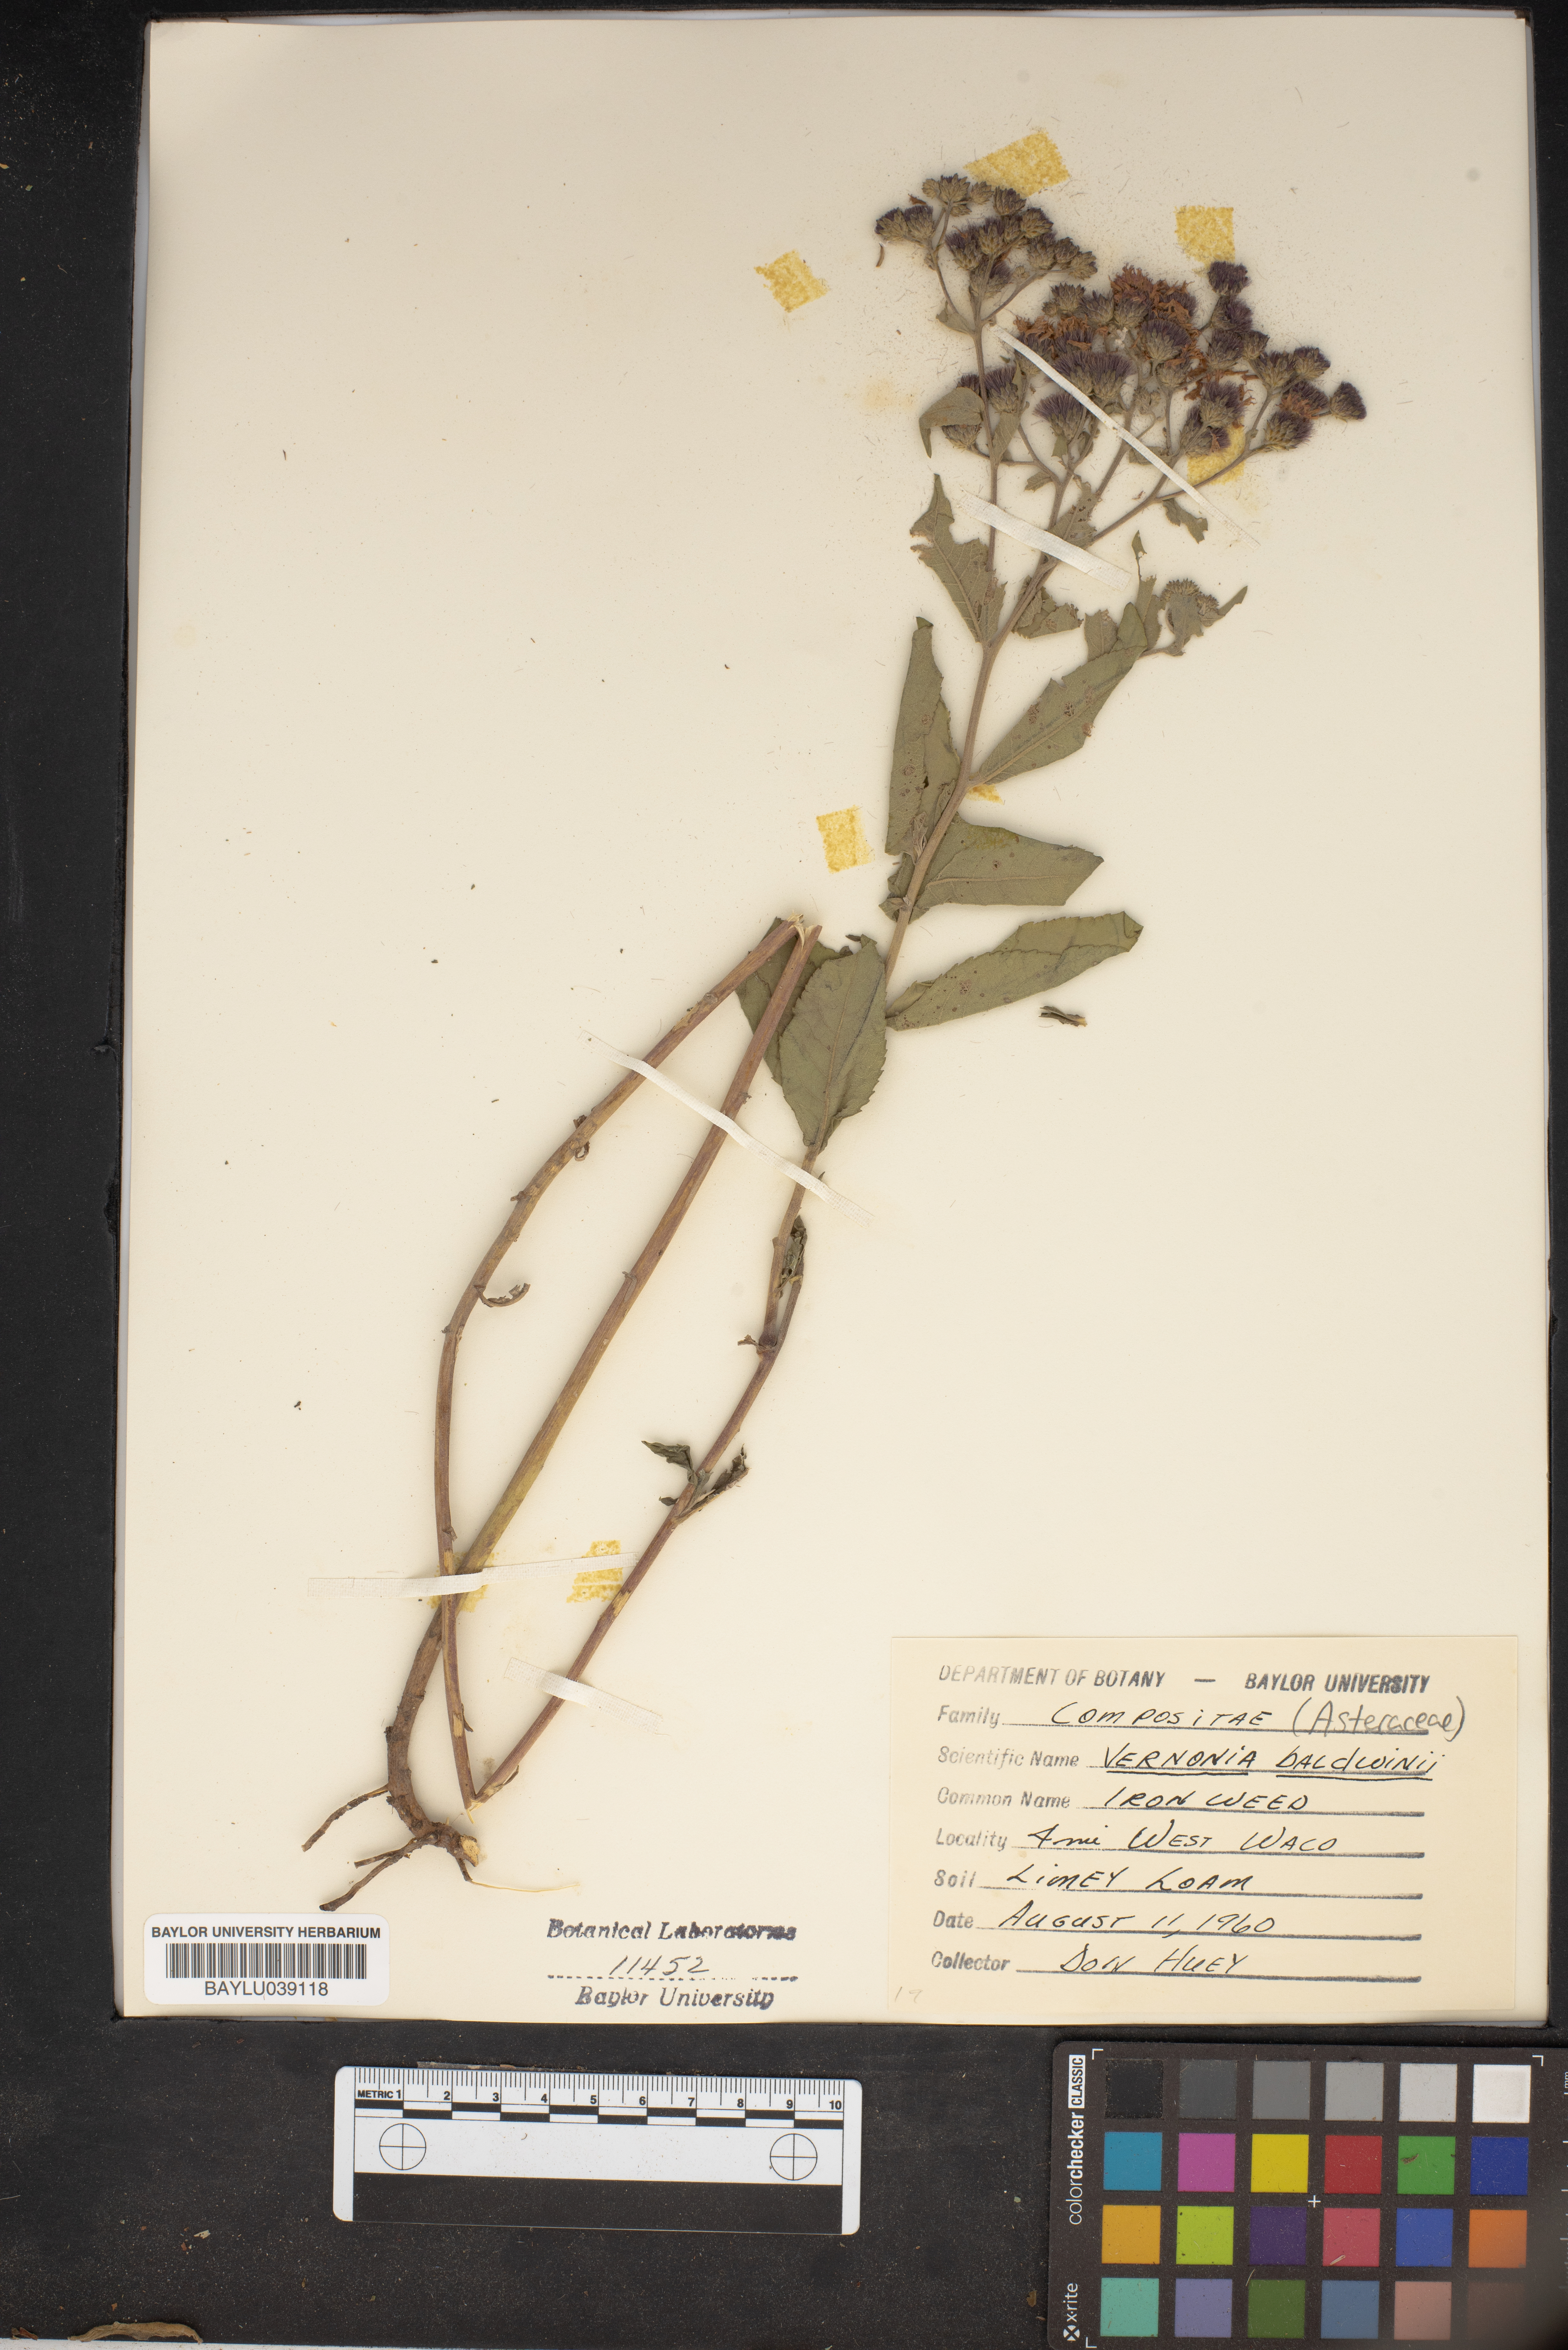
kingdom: Plantae
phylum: Tracheophyta
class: Magnoliopsida
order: Asterales
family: Asteraceae
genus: Vernonia
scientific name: Vernonia baldwinii
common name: Western ironweed
